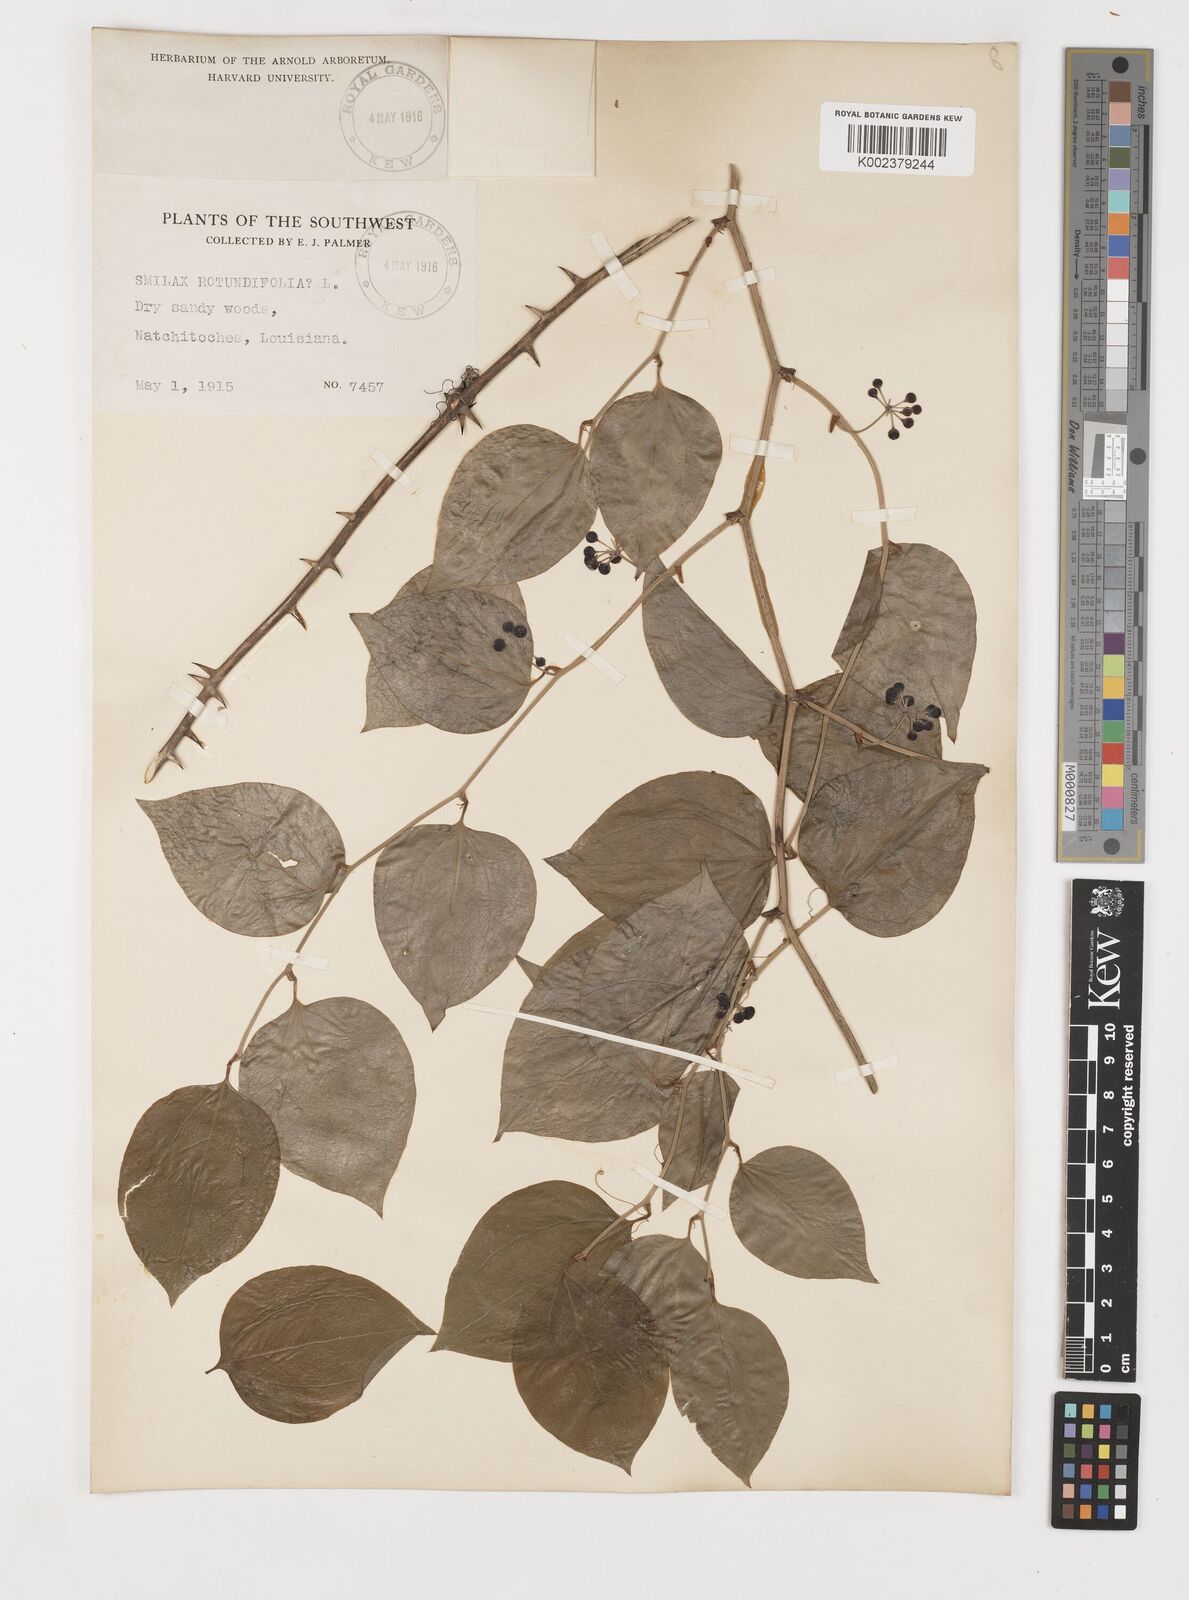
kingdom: Plantae
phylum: Tracheophyta
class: Liliopsida
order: Liliales
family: Smilacaceae
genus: Smilax
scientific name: Smilax rotundifolia
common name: Bullbriar
